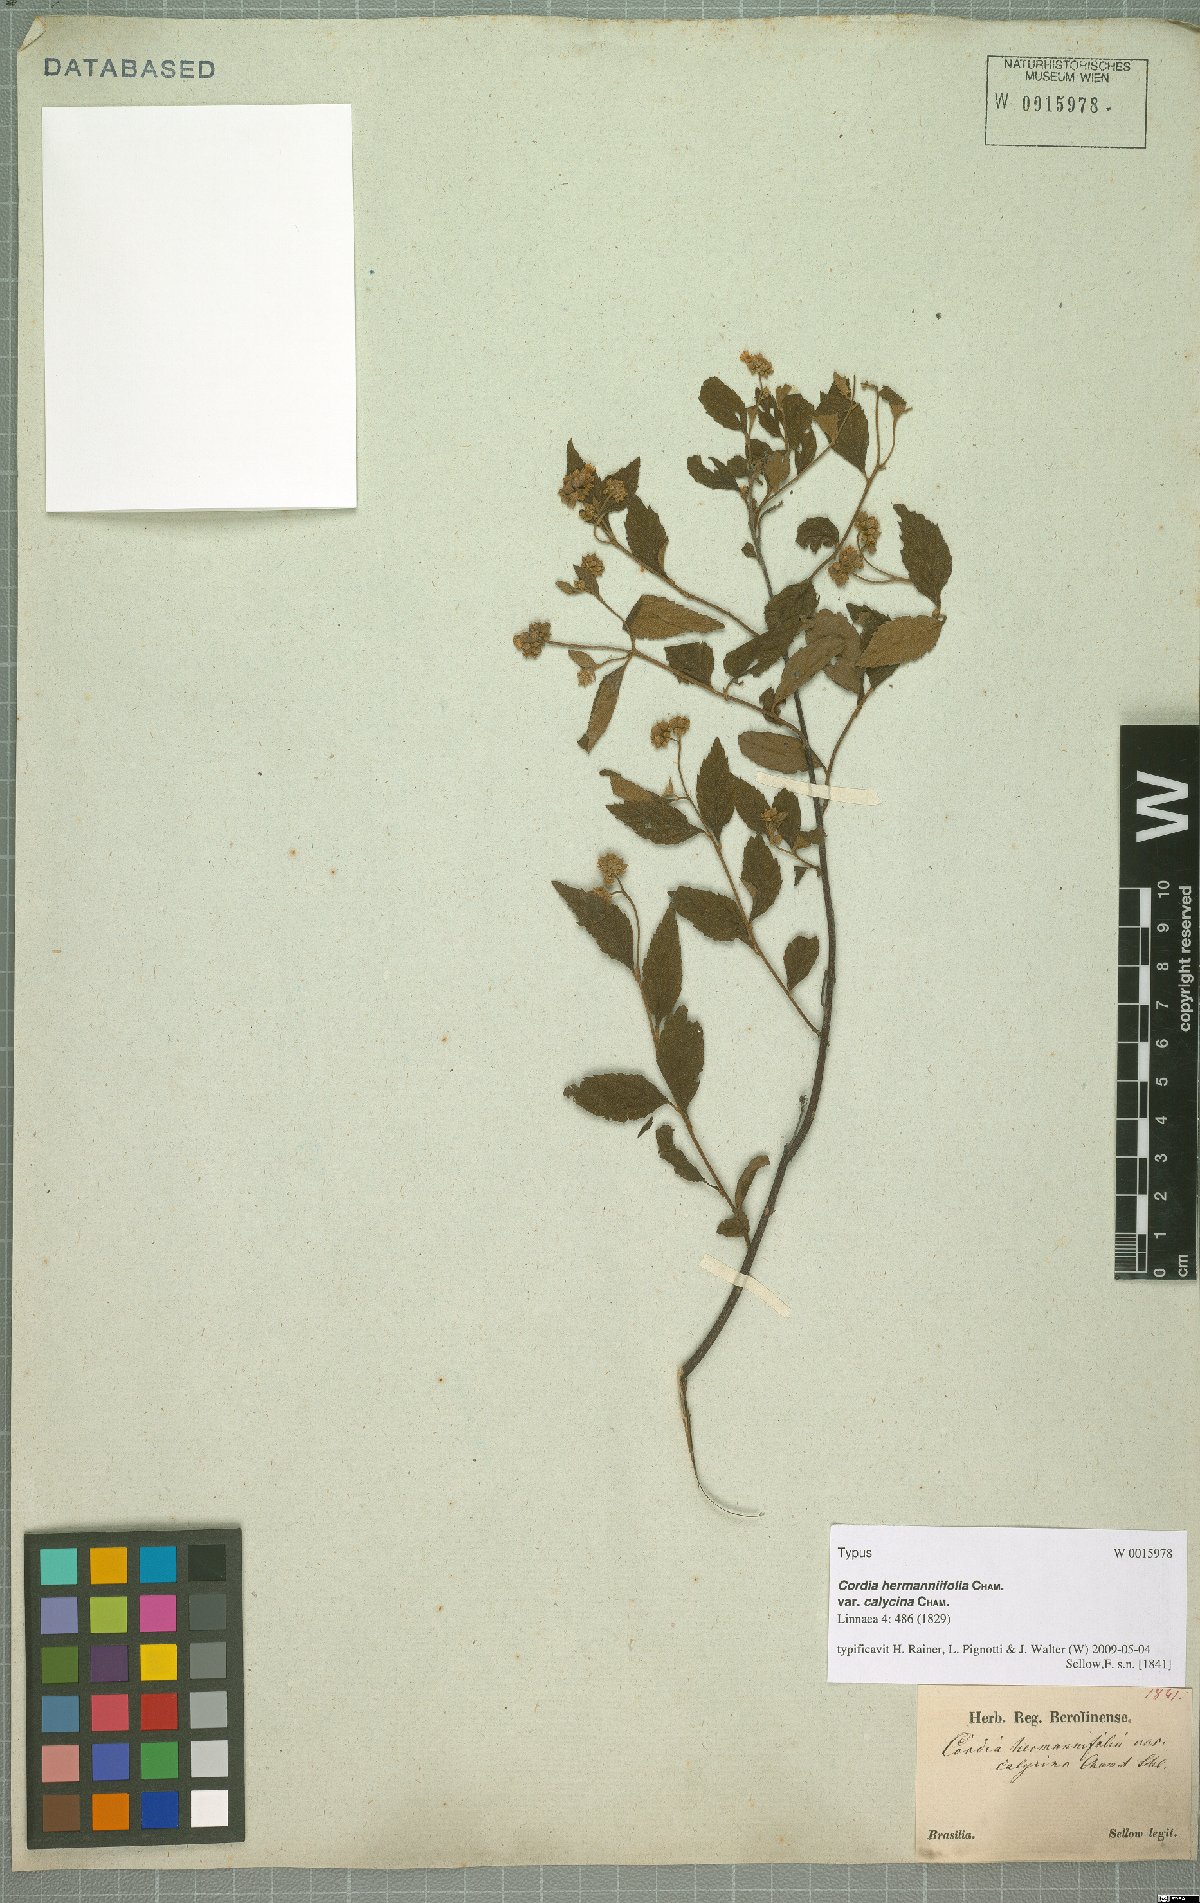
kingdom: Plantae
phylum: Tracheophyta
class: Magnoliopsida
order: Boraginales
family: Cordiaceae
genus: Varronia
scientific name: Varronia polycephala
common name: Black-sage
